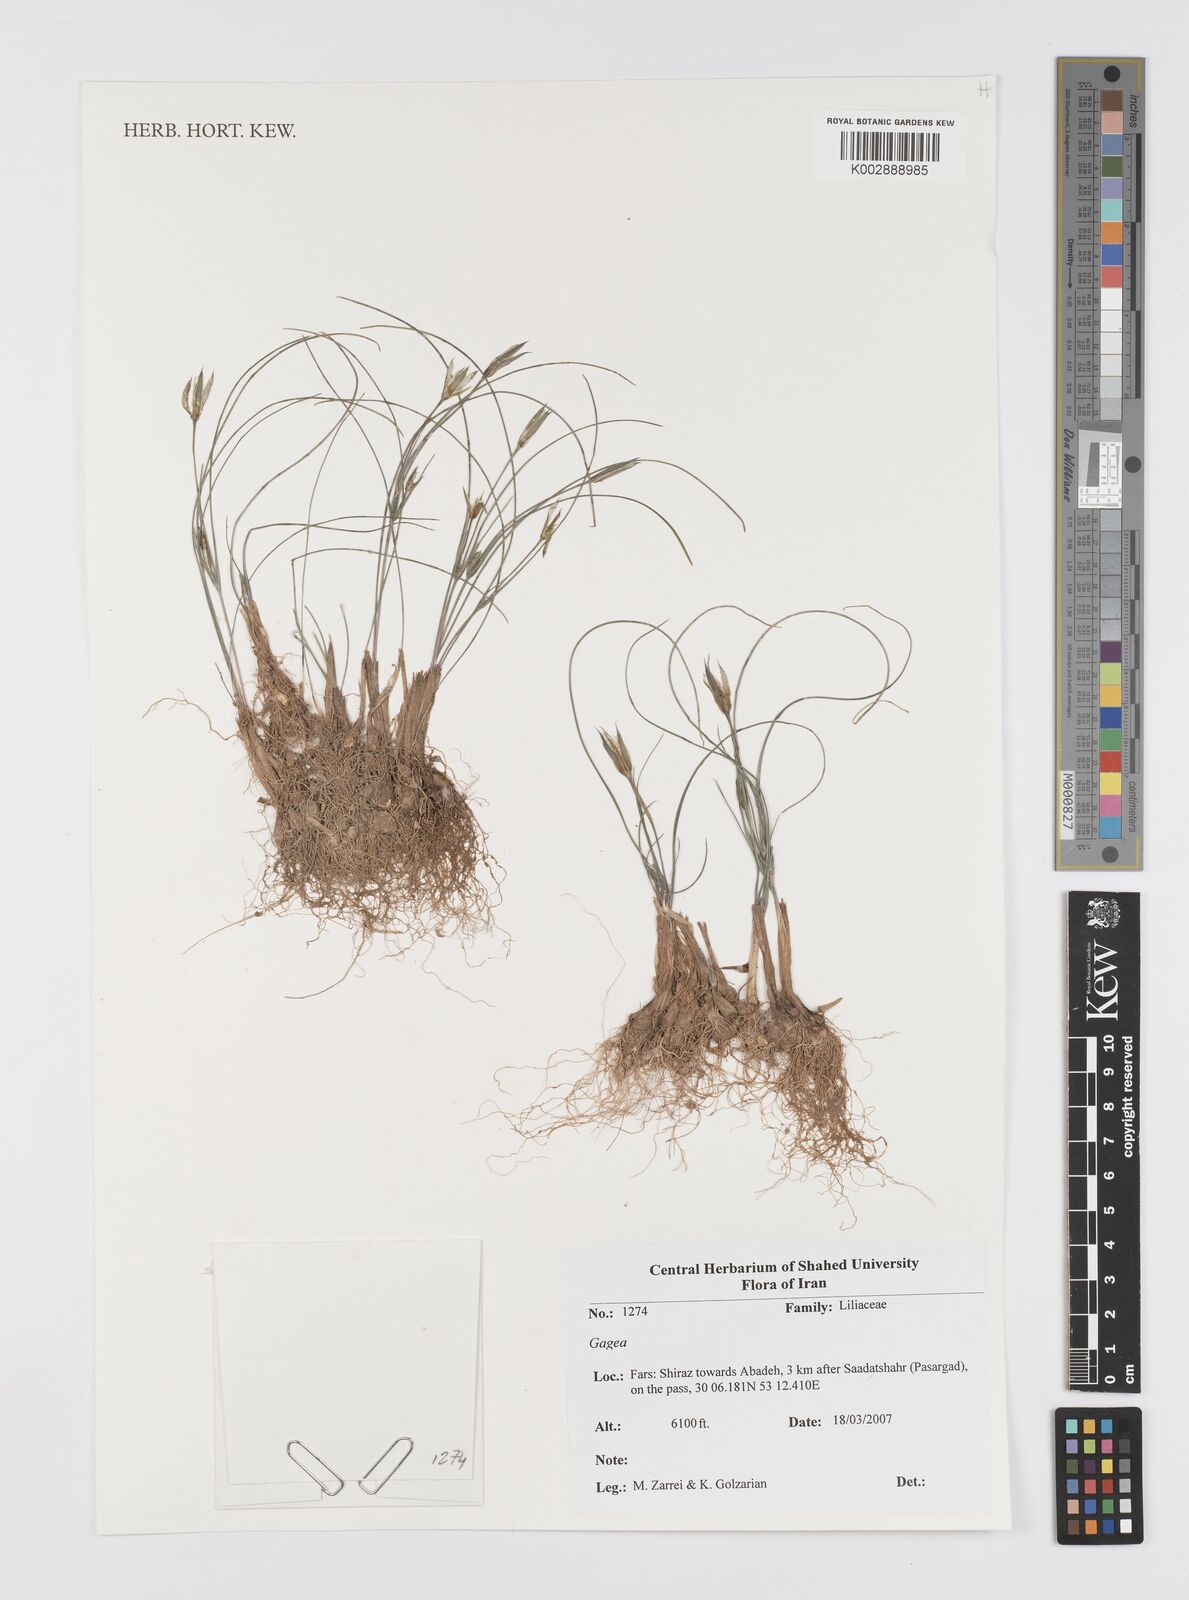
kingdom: Plantae
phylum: Tracheophyta
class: Liliopsida
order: Liliales
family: Liliaceae
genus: Gagea
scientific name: Gagea
